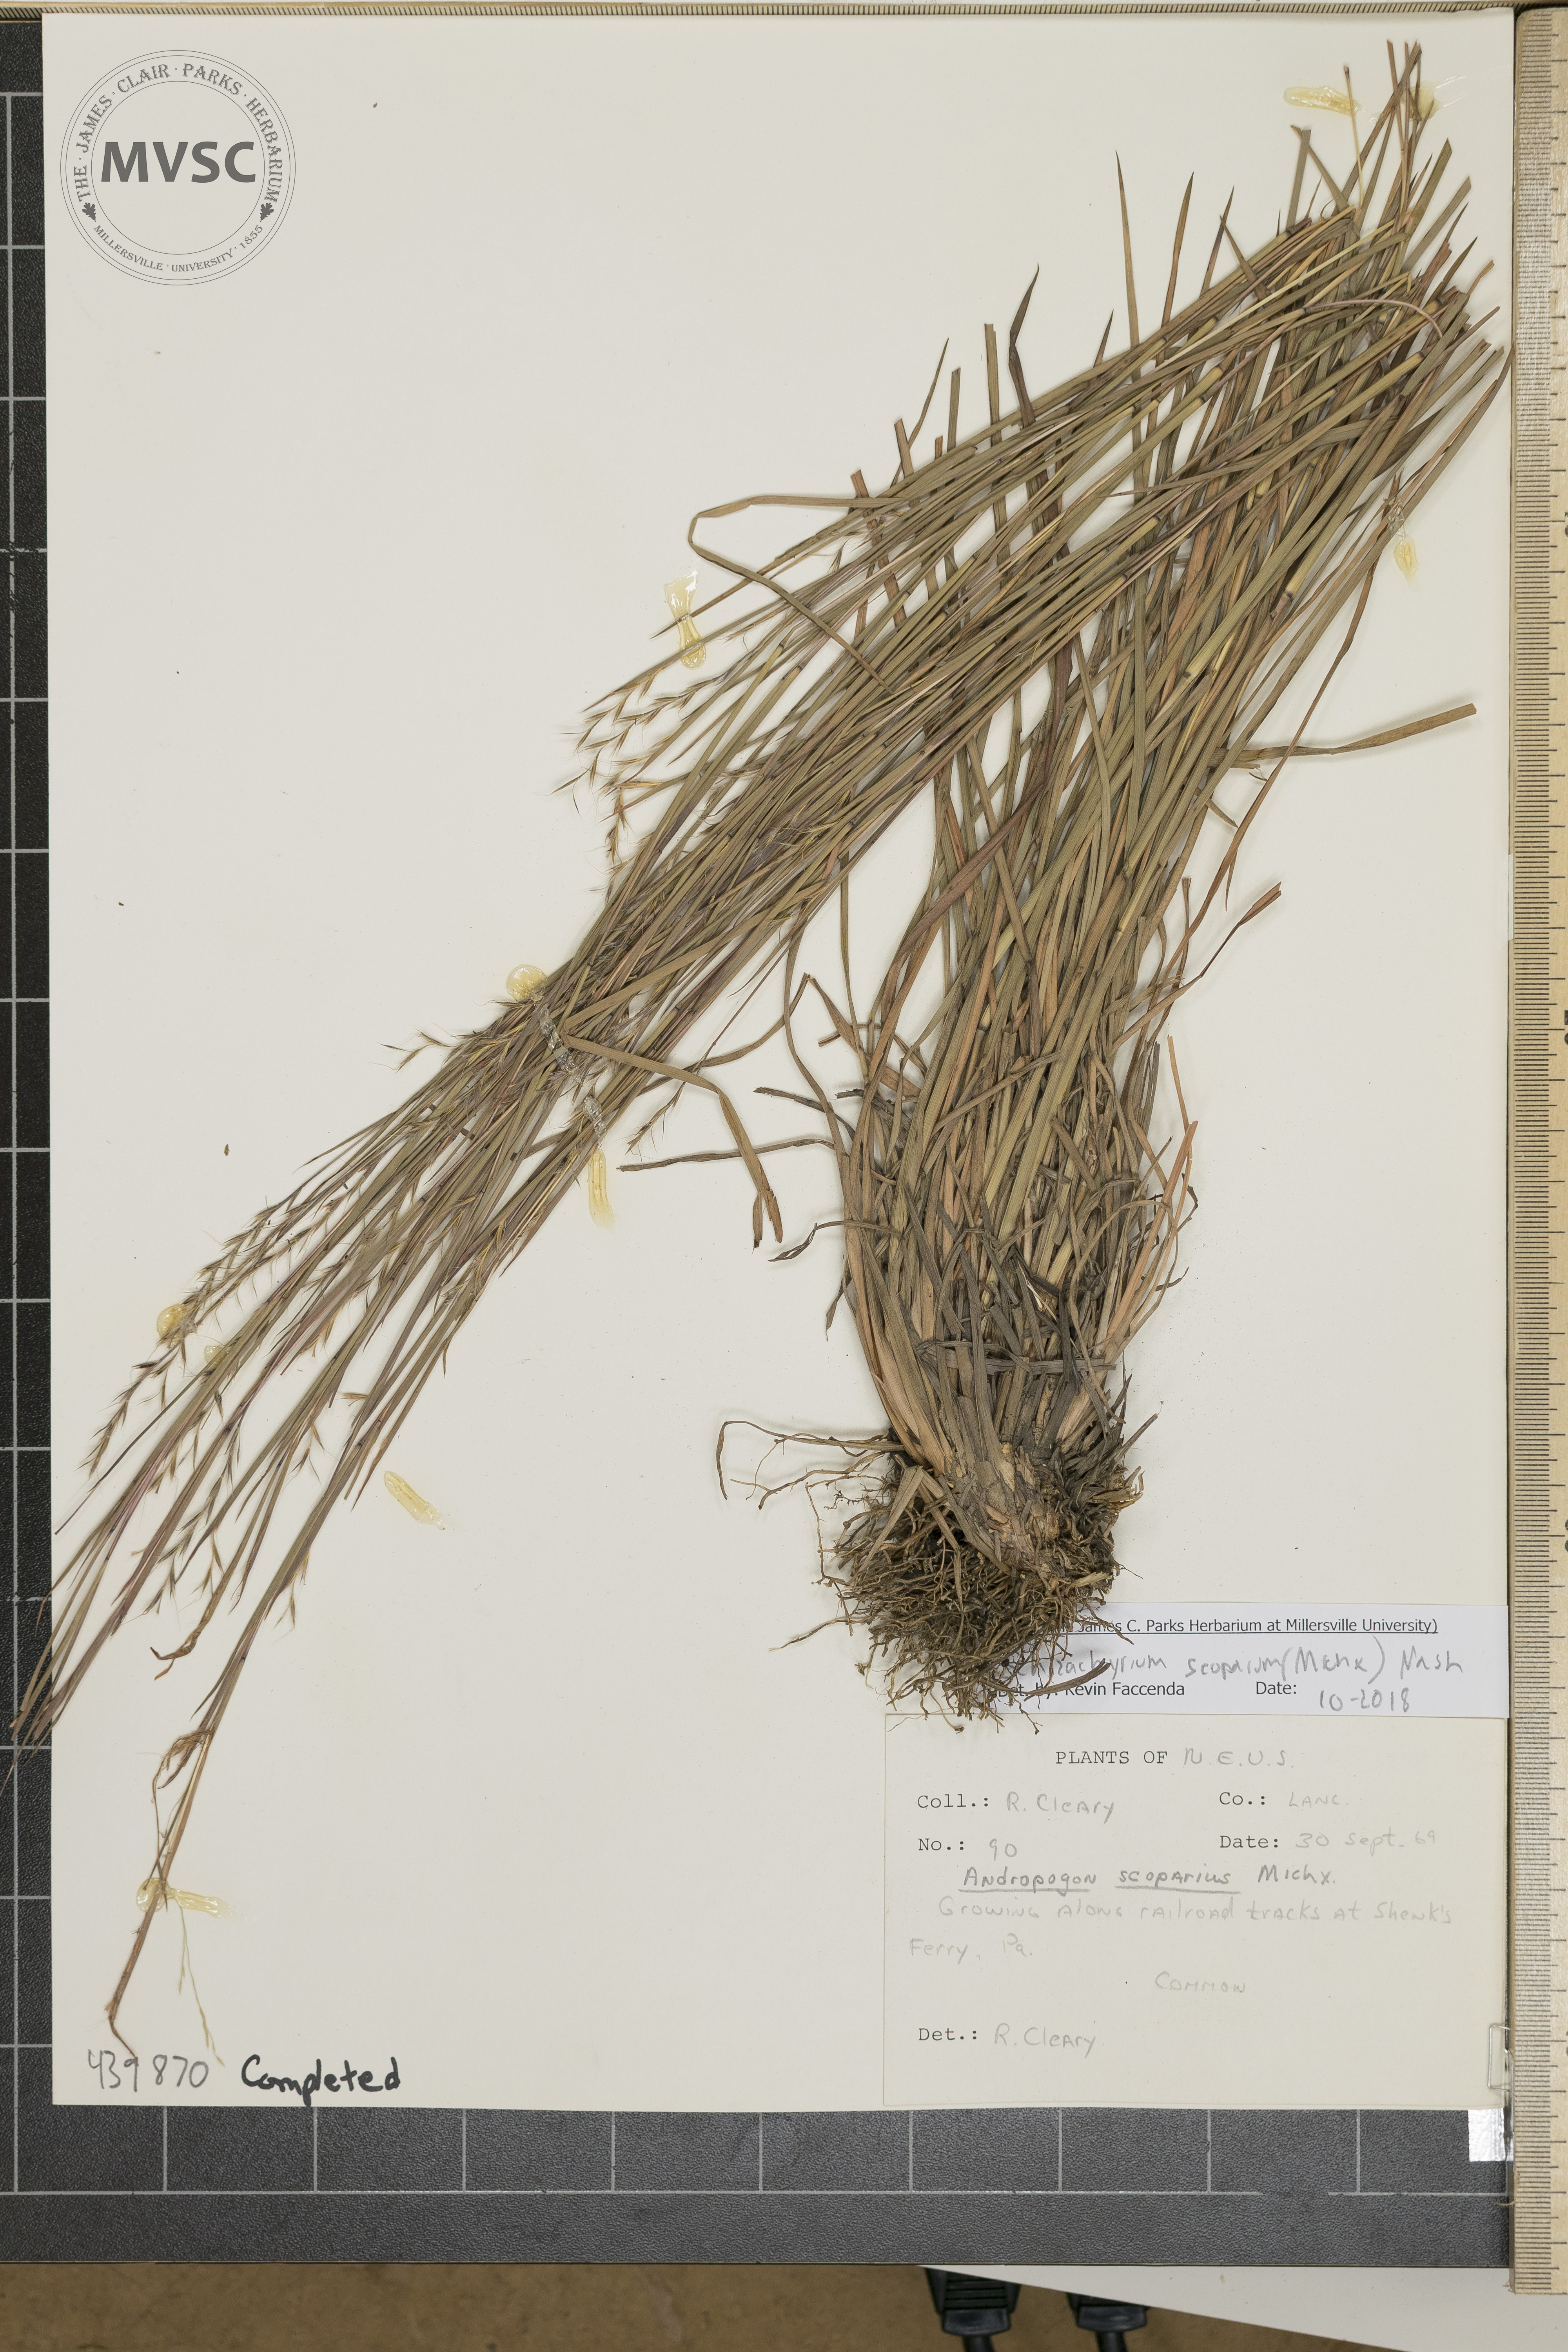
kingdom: Plantae
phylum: Tracheophyta
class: Liliopsida
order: Poales
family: Poaceae
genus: Schizachyrium
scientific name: Schizachyrium scoparium
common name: Little bluestem
